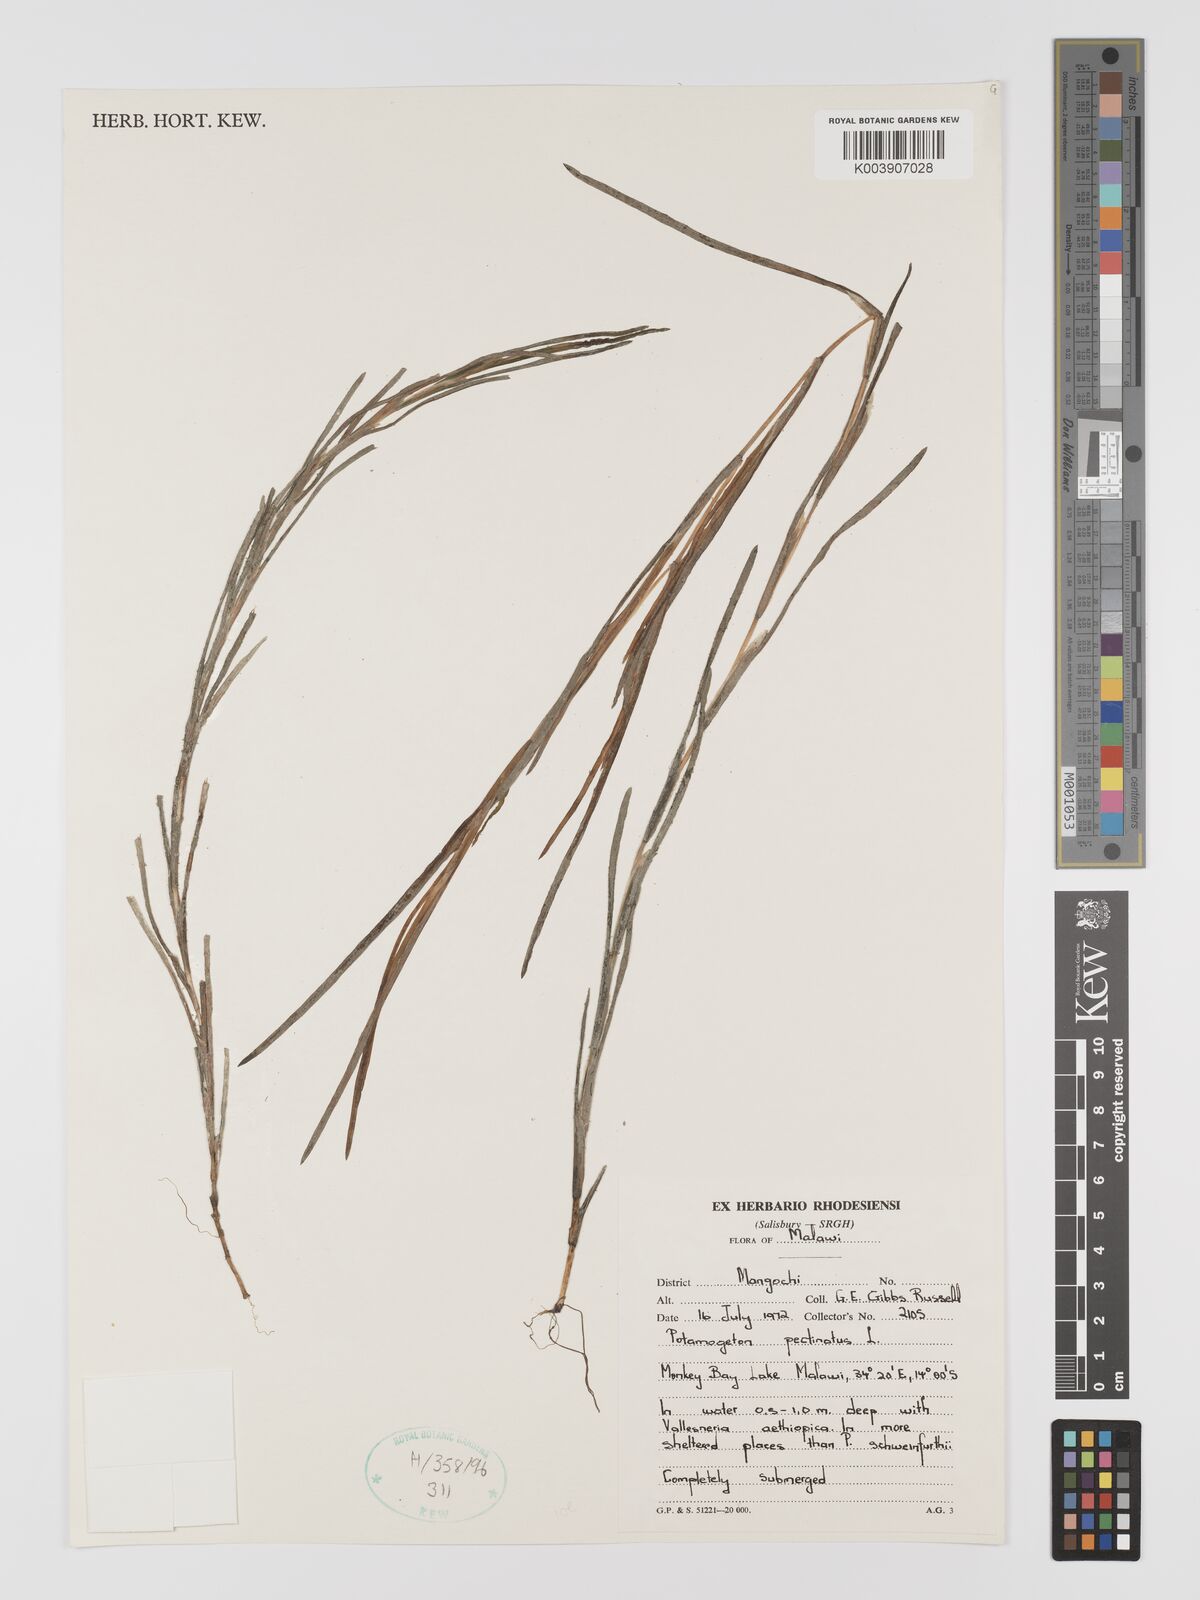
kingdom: Plantae
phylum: Tracheophyta
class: Liliopsida
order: Alismatales
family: Potamogetonaceae
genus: Stuckenia
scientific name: Stuckenia pectinata
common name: Sago pondweed
